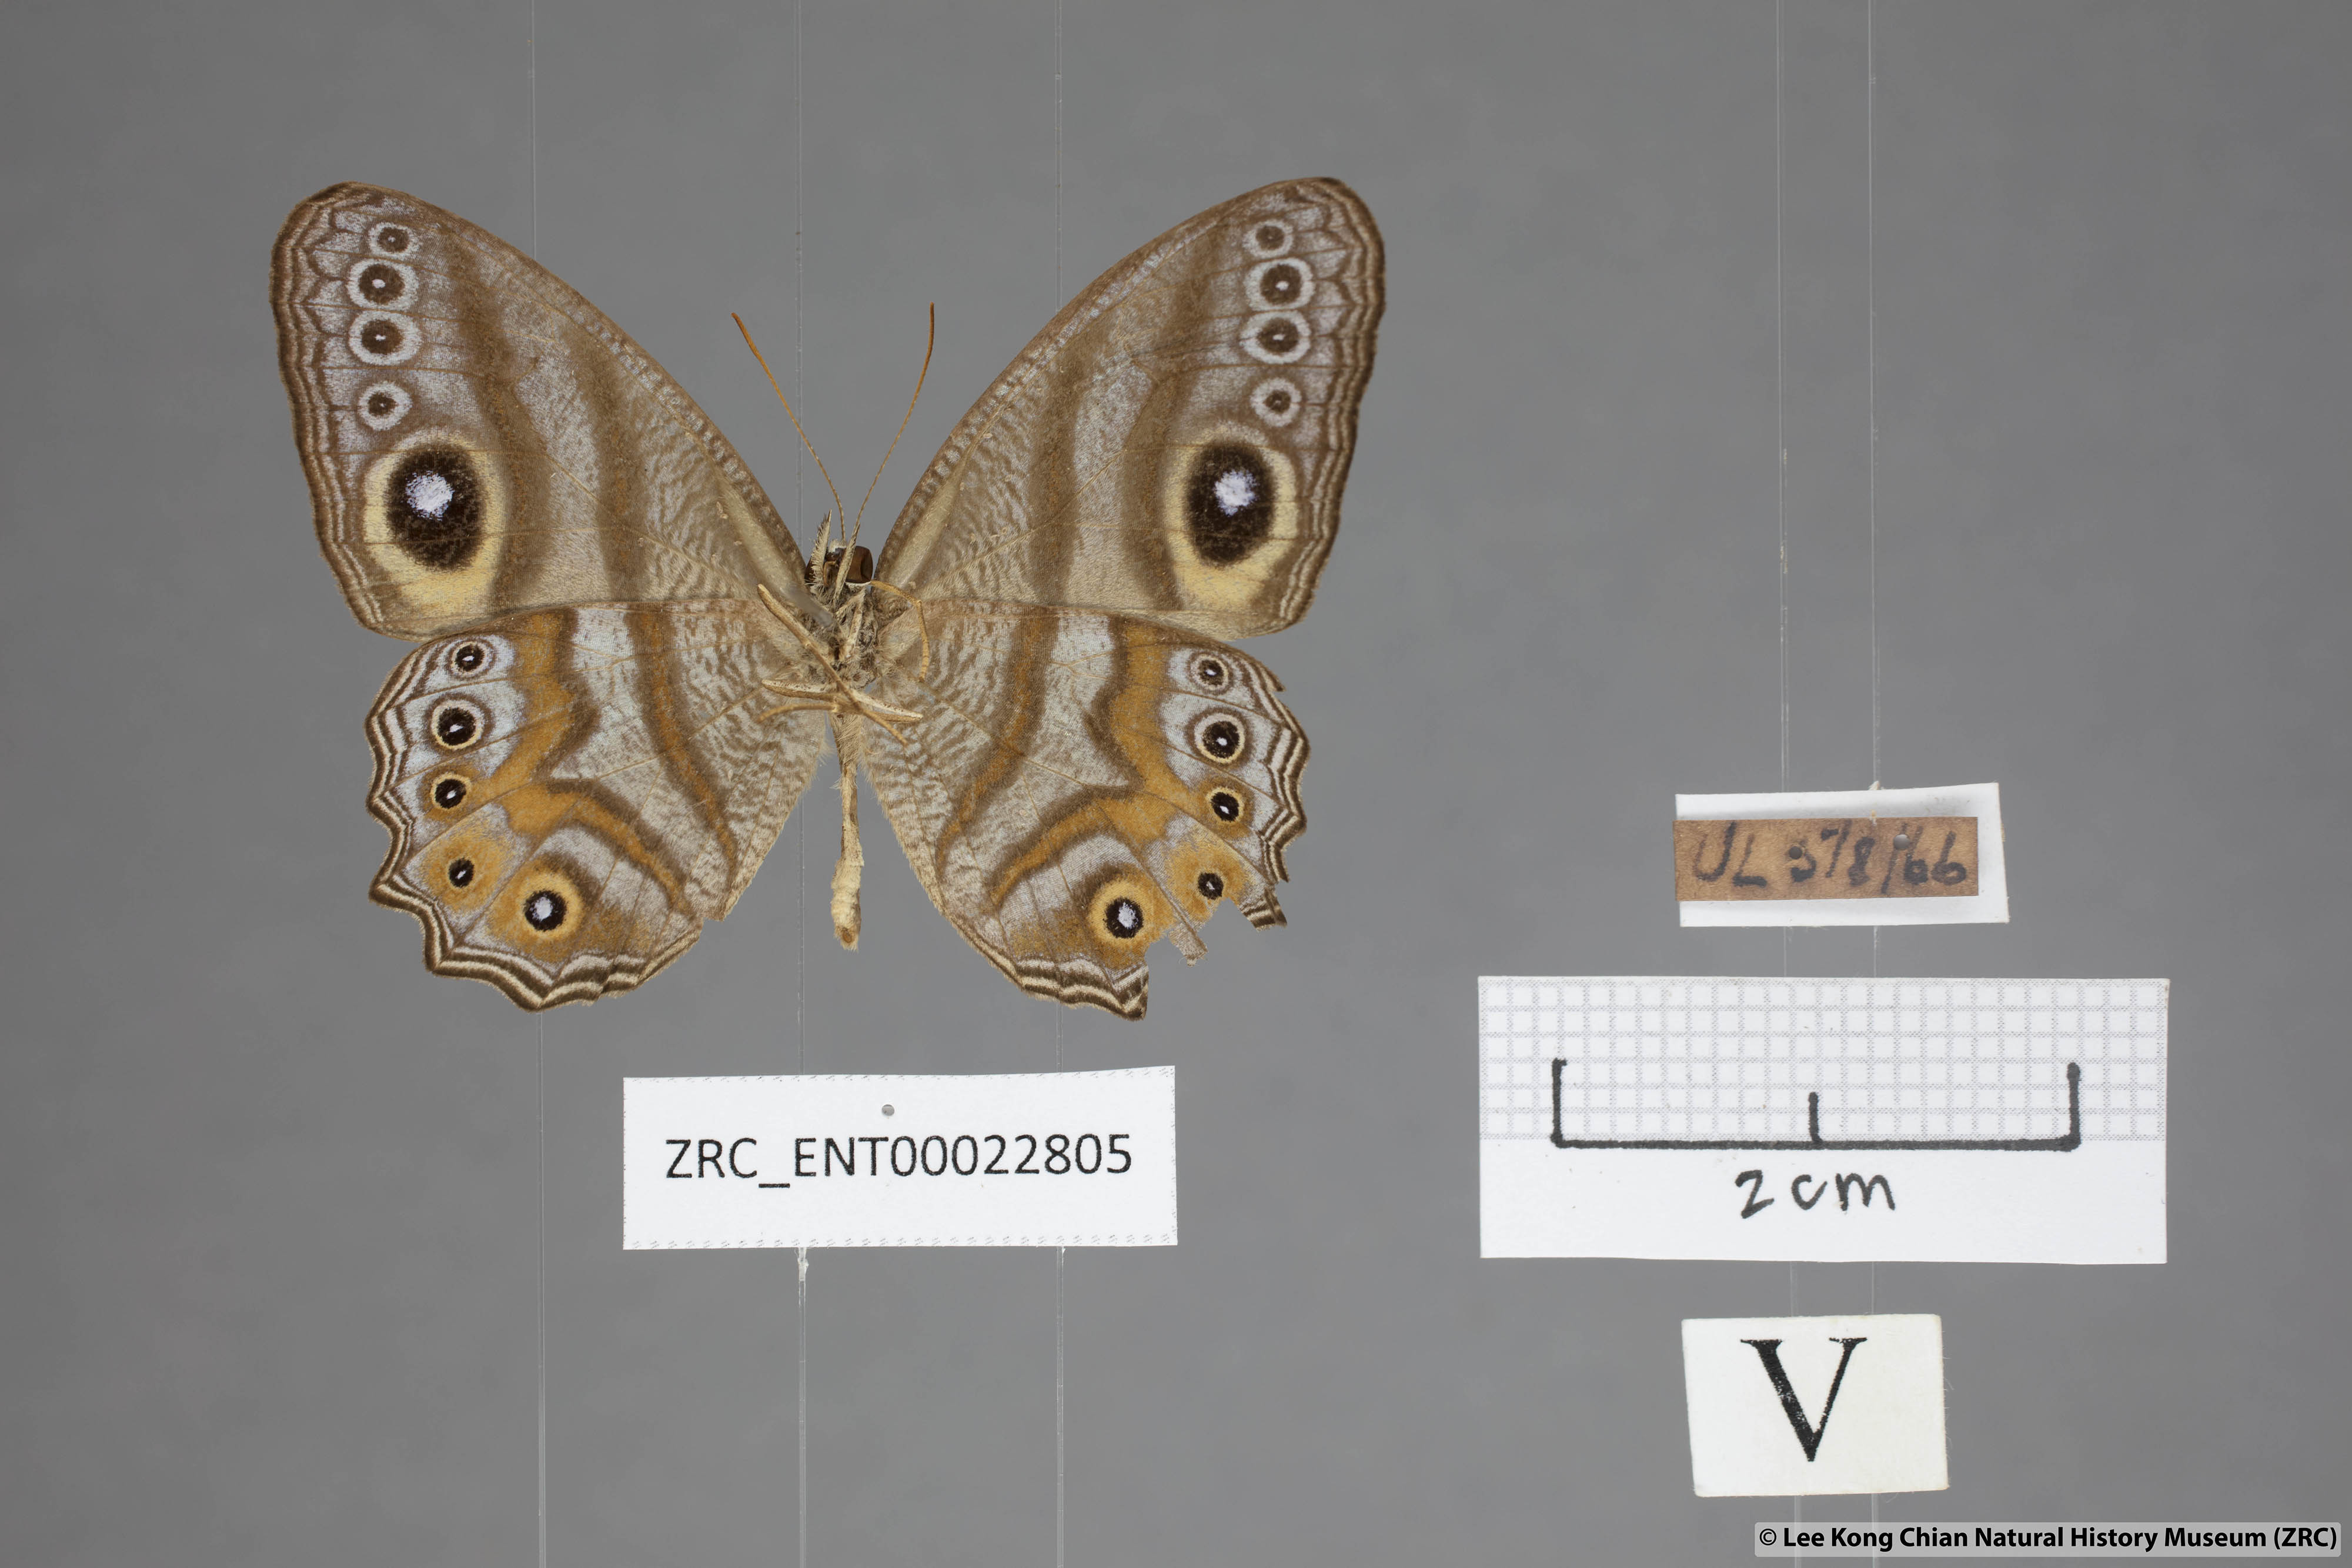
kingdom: Animalia
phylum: Arthropoda
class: Insecta
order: Lepidoptera
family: Nymphalidae
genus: Erites
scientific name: Erites argentina
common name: Eyed cyclops
